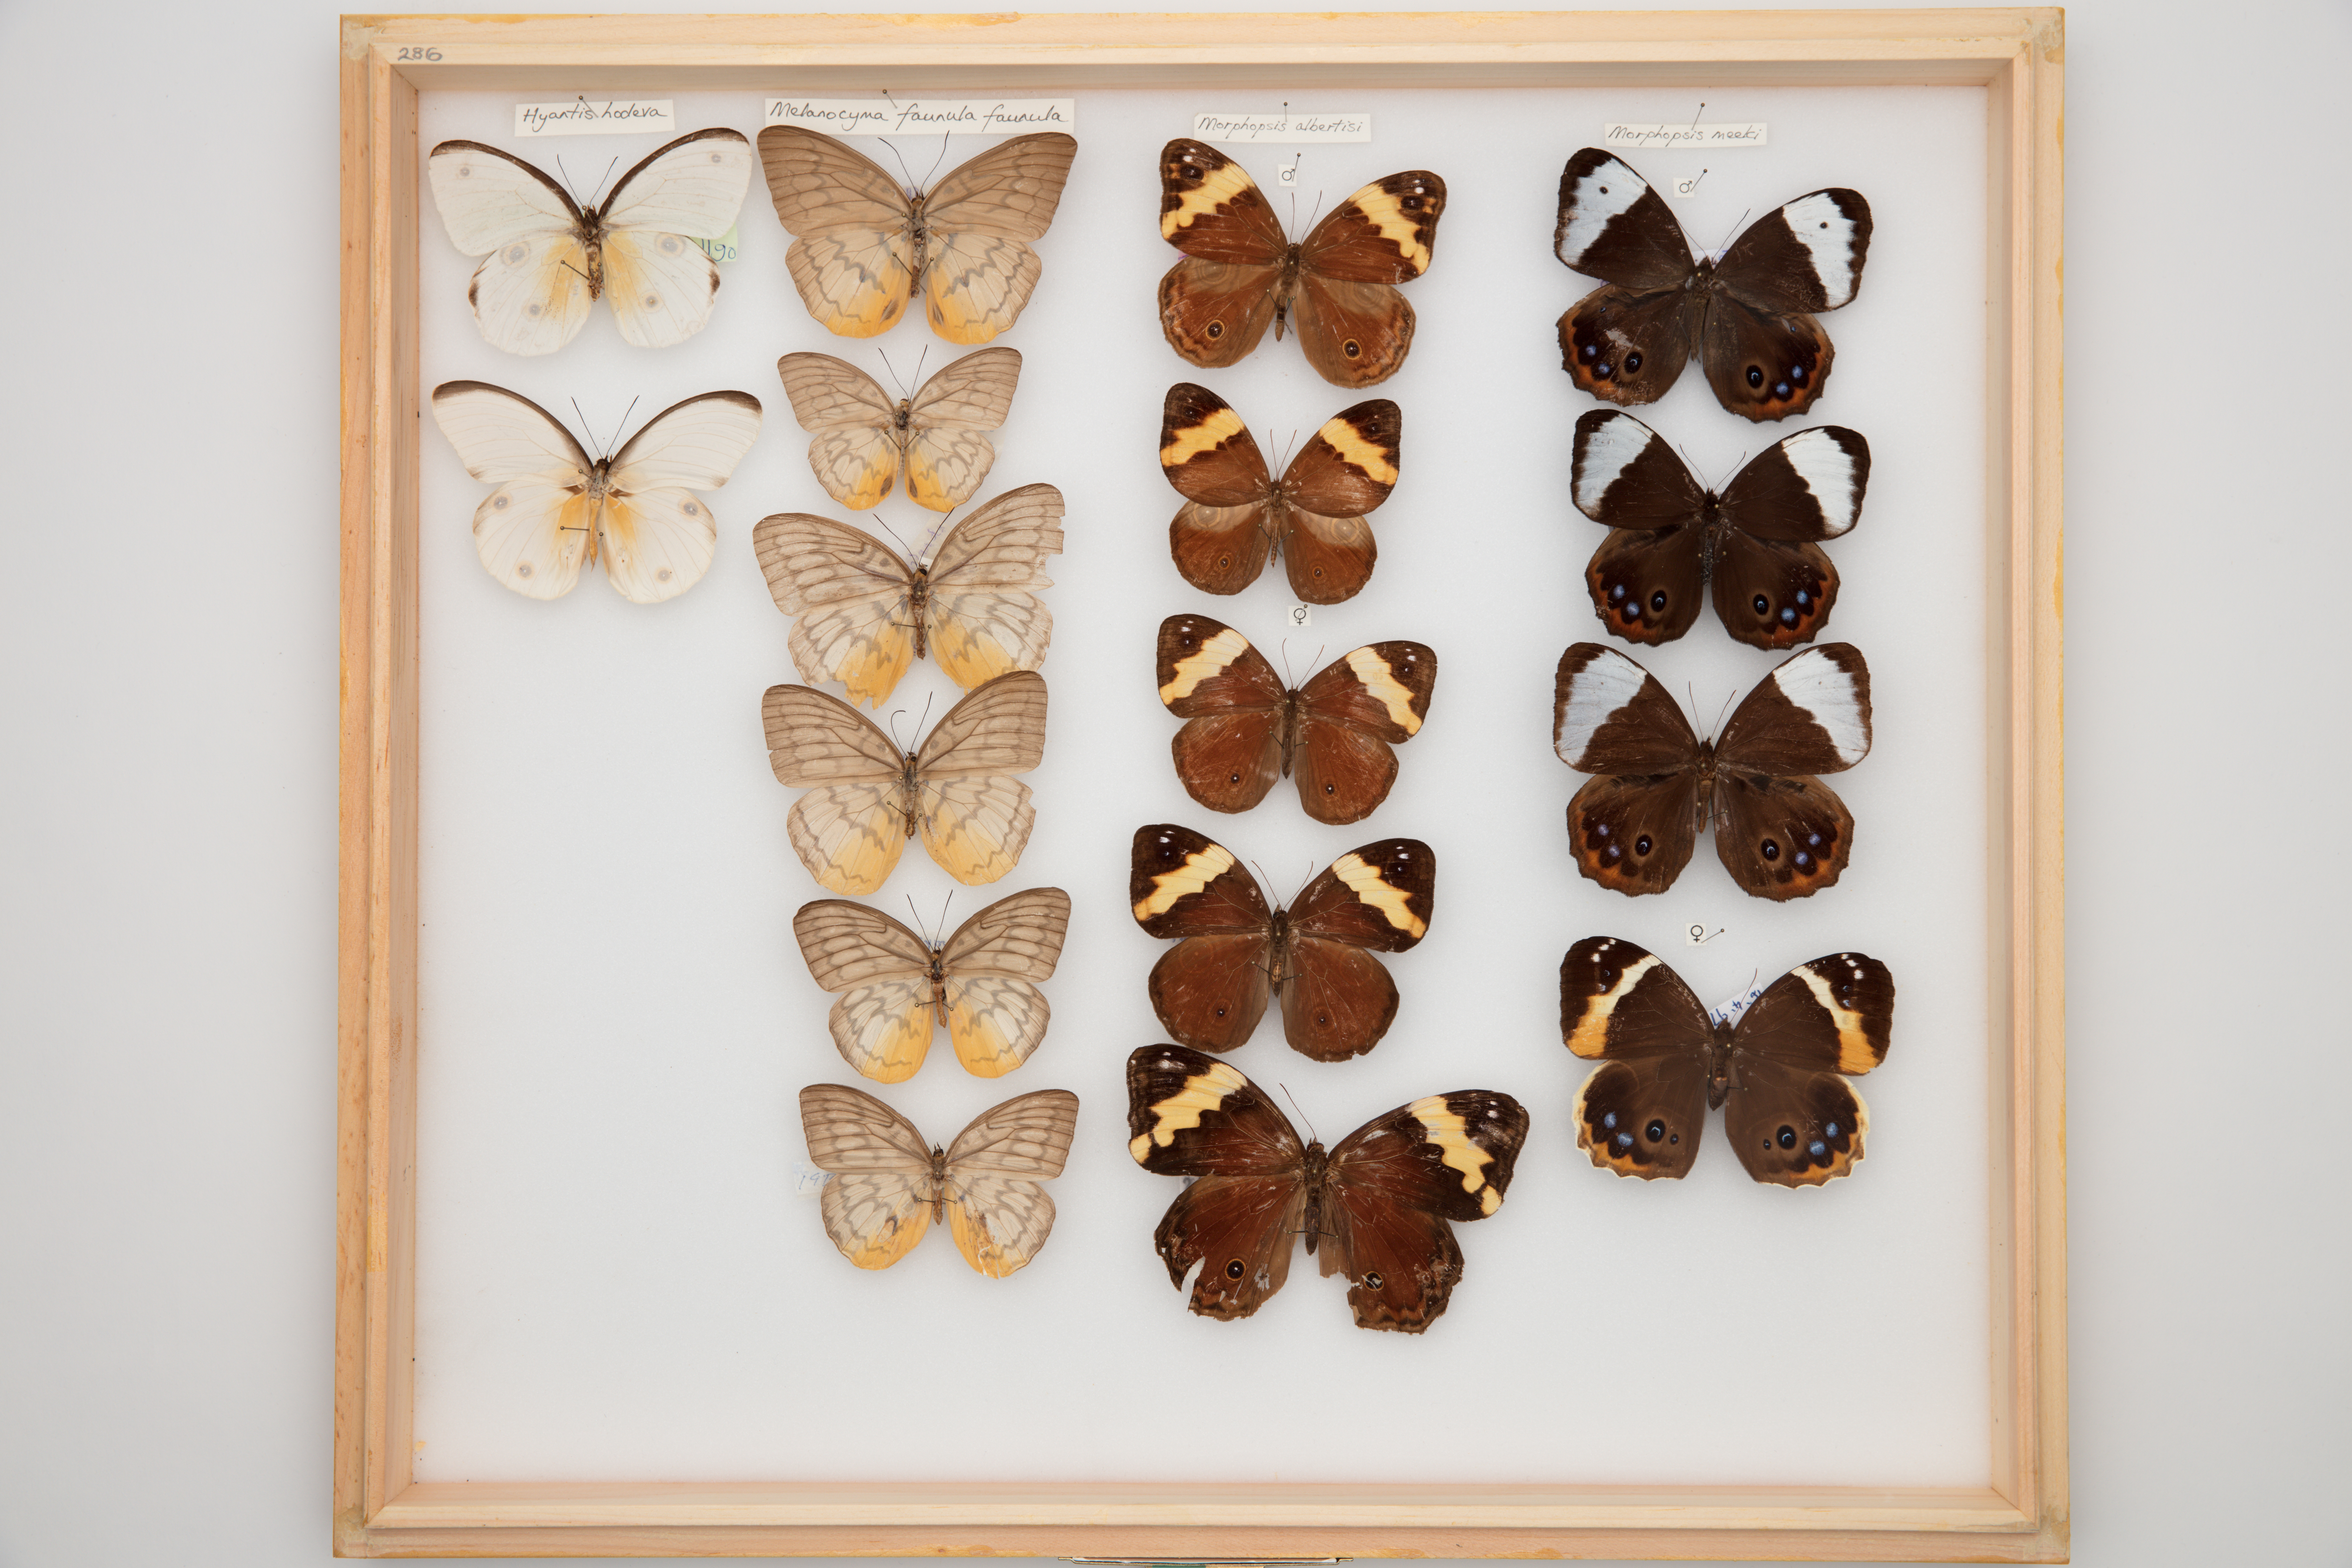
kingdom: Animalia
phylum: Arthropoda
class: Insecta
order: Lepidoptera
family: Nymphalidae
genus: Faunis
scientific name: Faunis Melanocyma faunula
